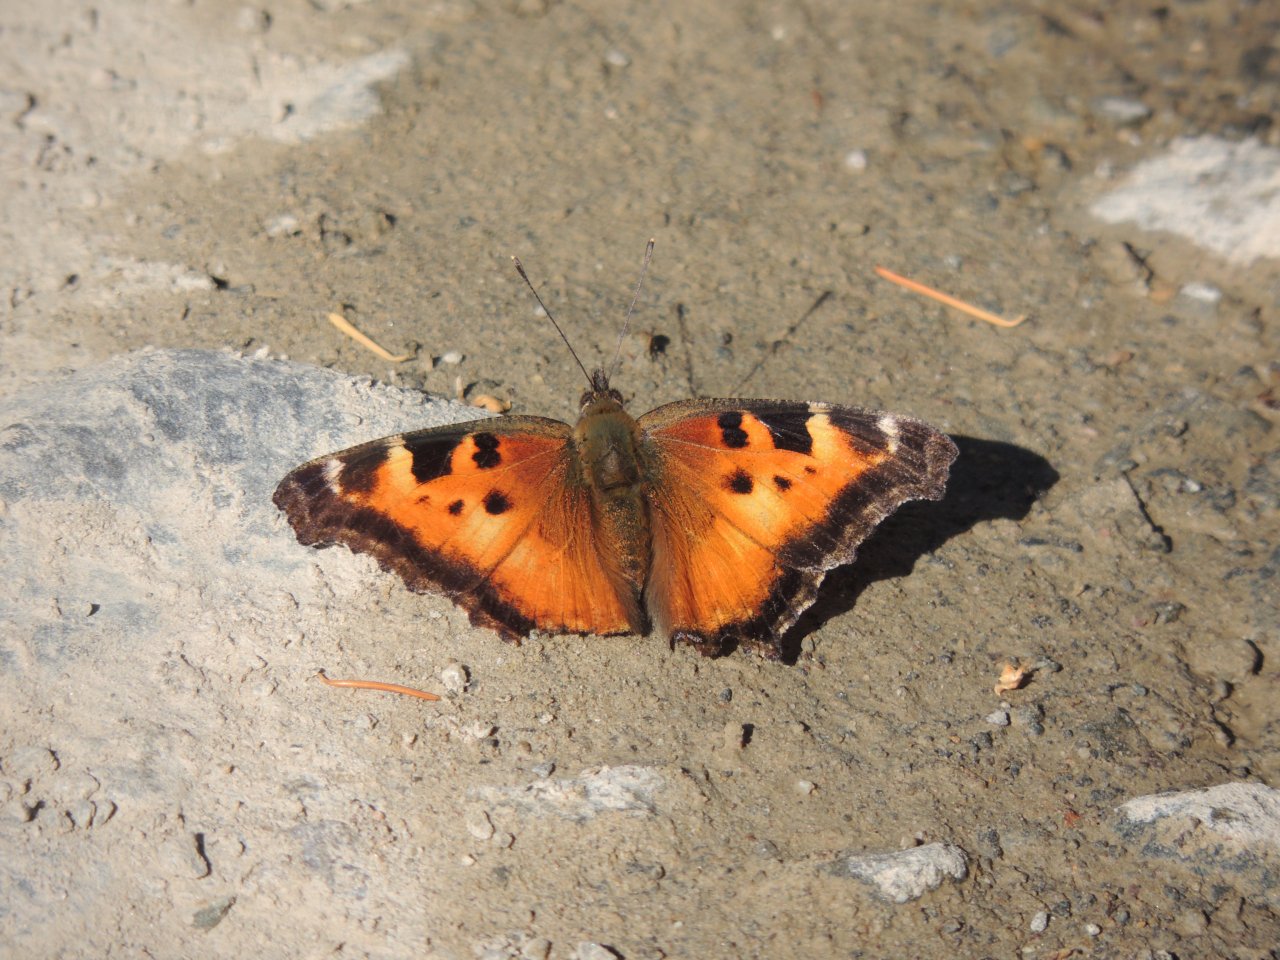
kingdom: Animalia
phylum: Arthropoda
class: Insecta
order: Lepidoptera
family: Nymphalidae
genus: Nymphalis
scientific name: Nymphalis californica
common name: California Tortoiseshell
